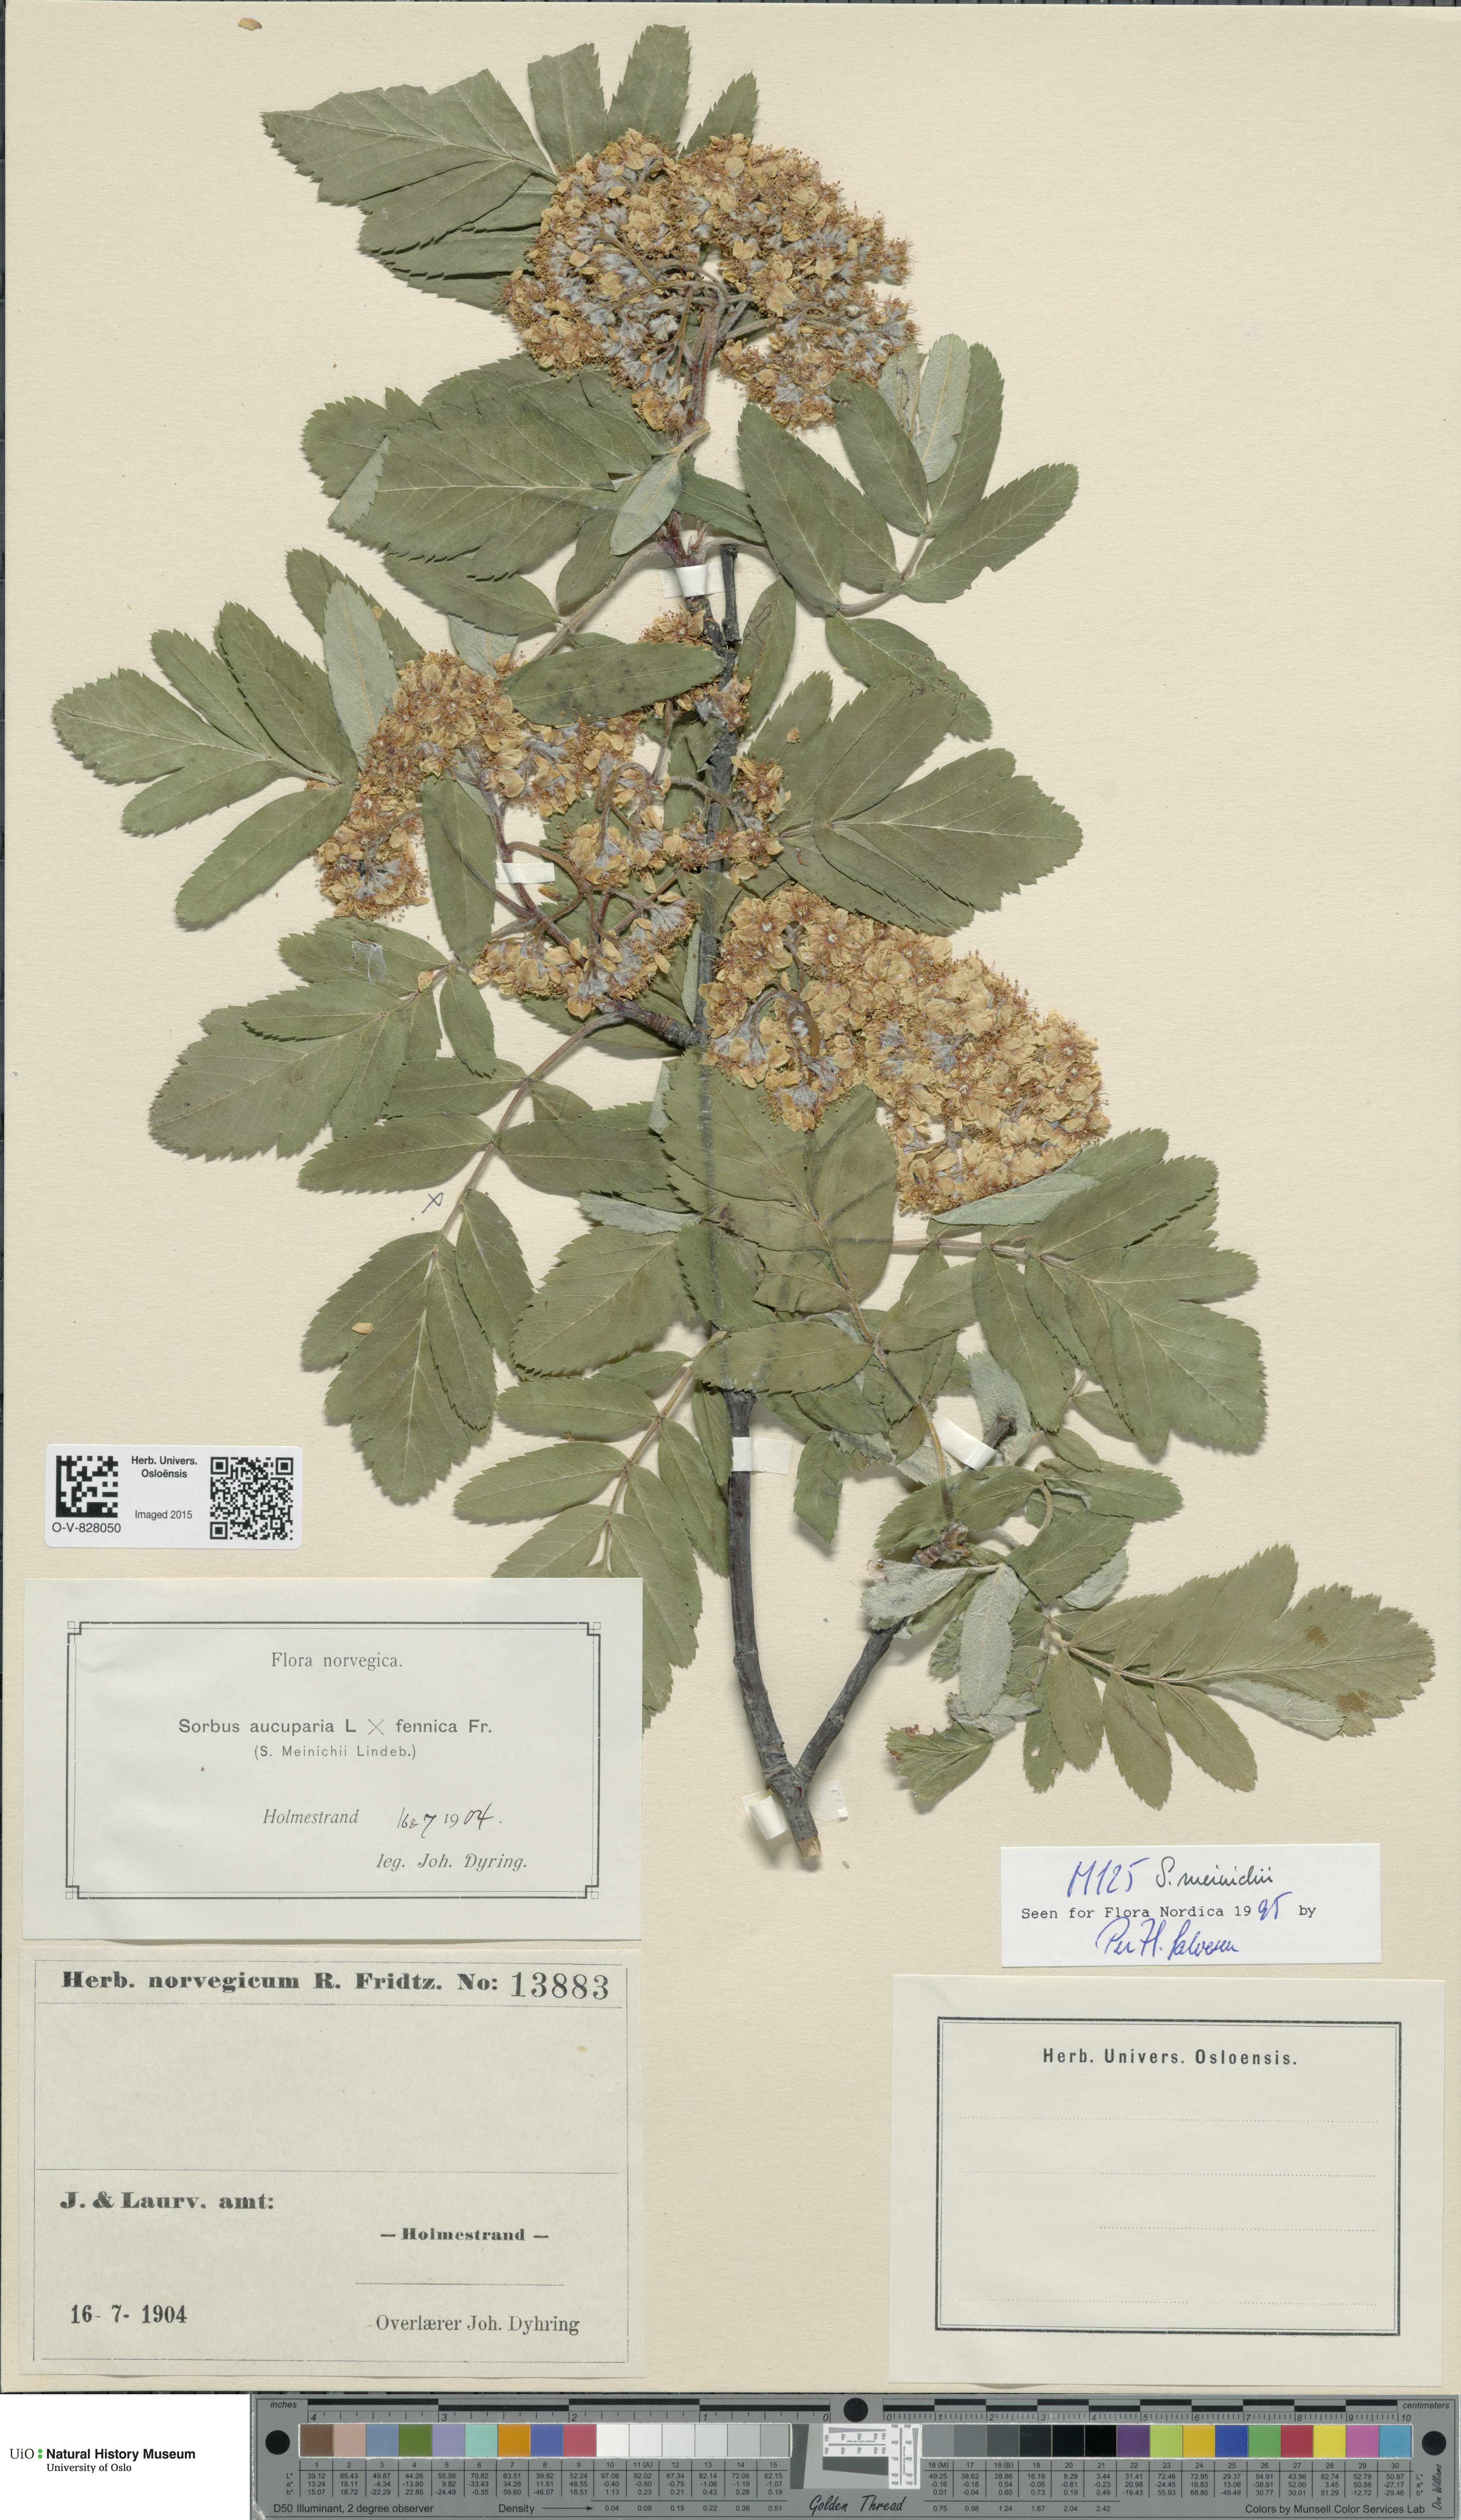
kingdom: Plantae
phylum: Tracheophyta
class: Magnoliopsida
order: Rosales
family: Rosaceae
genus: Hedlundia
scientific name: Hedlundia meinichii
